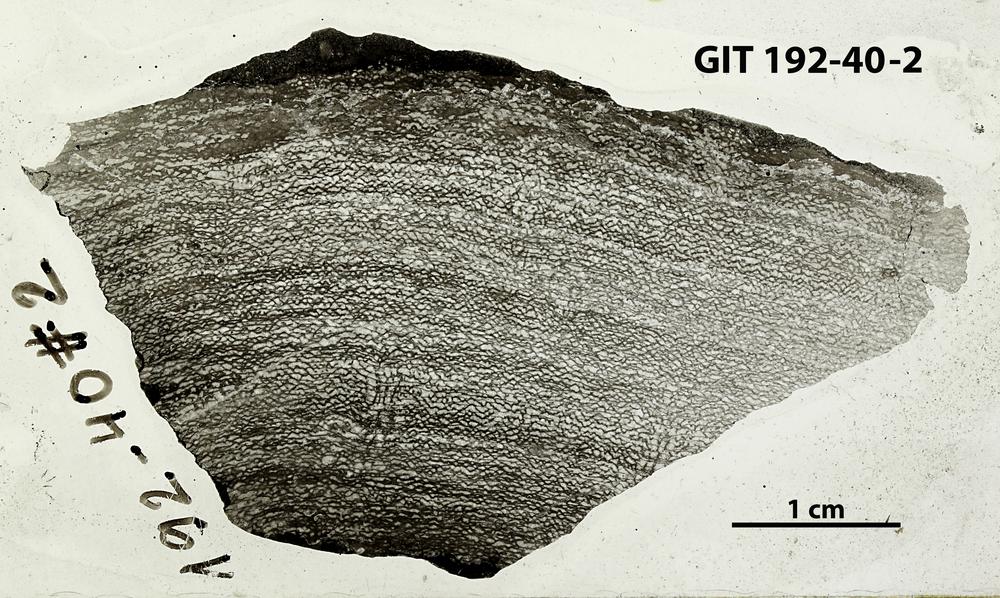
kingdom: Animalia
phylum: Porifera
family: Ecclimadictyidae
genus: Ecclimadictyon
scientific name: Ecclimadictyon
